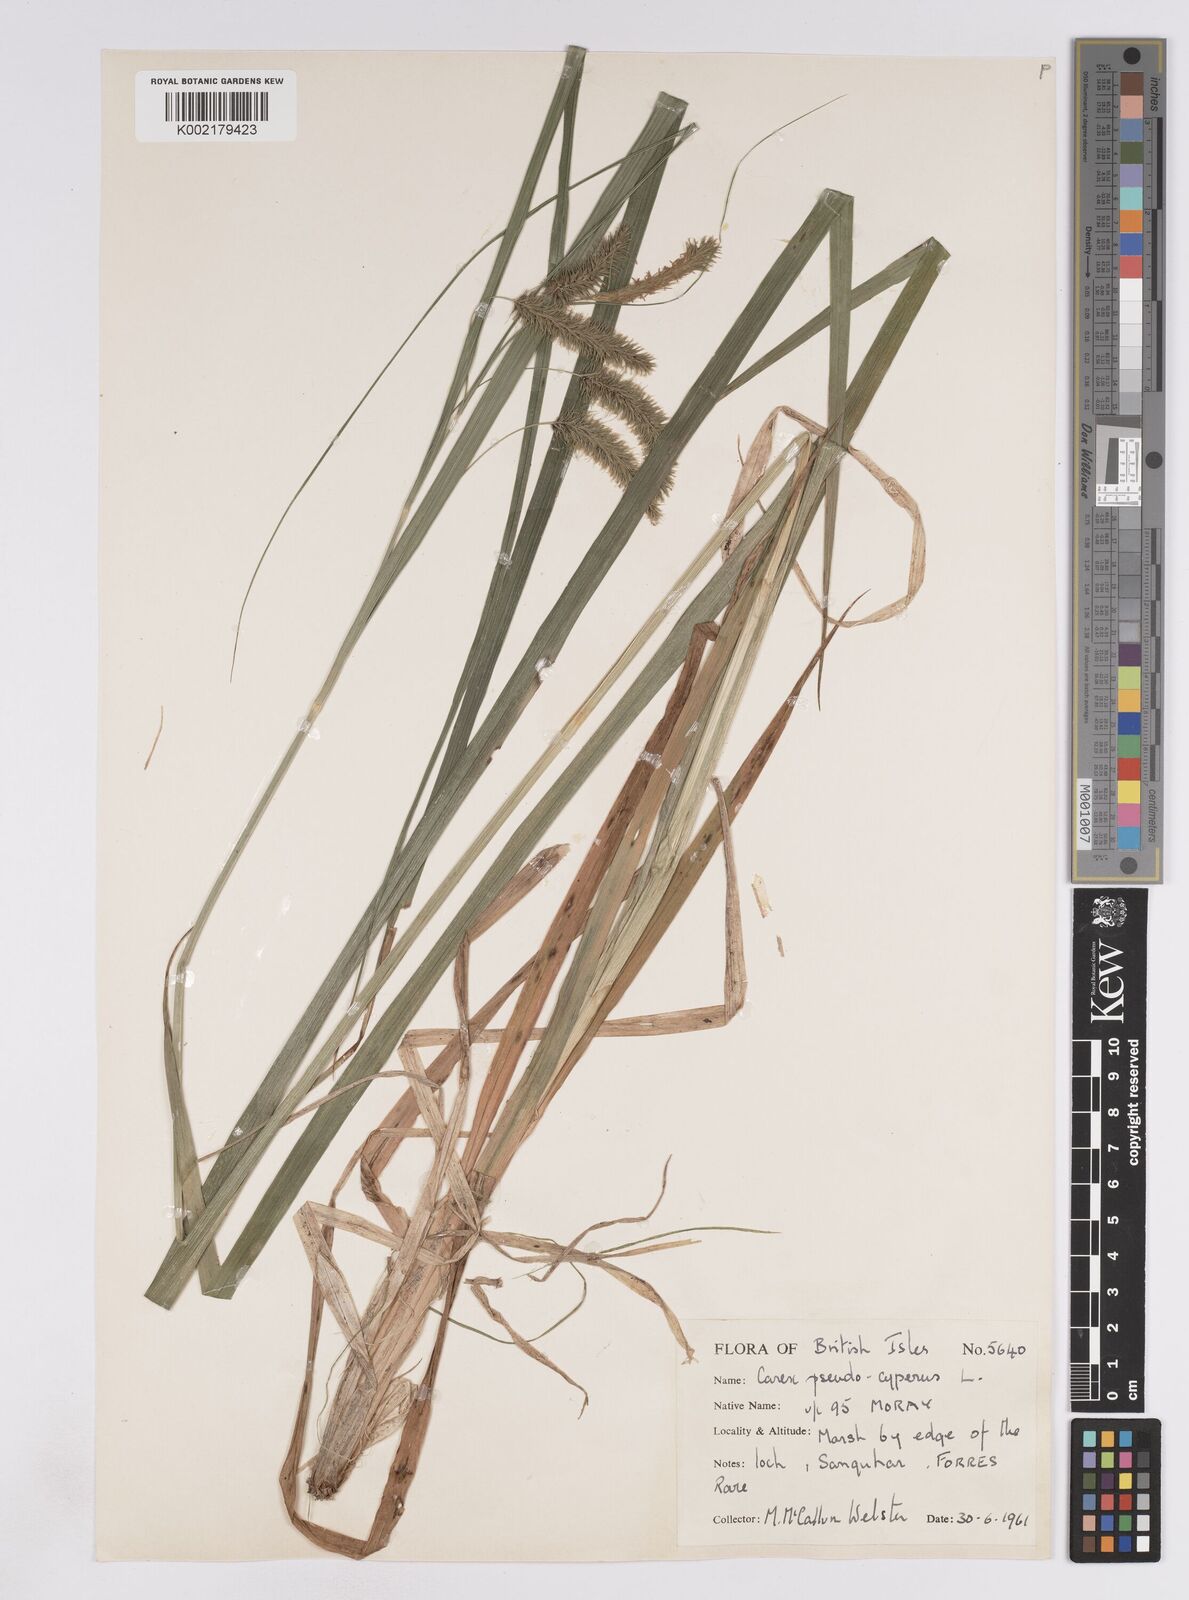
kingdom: Plantae
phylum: Tracheophyta
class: Liliopsida
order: Poales
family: Cyperaceae
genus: Carex
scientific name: Carex pseudocyperus
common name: Cyperus sedge
